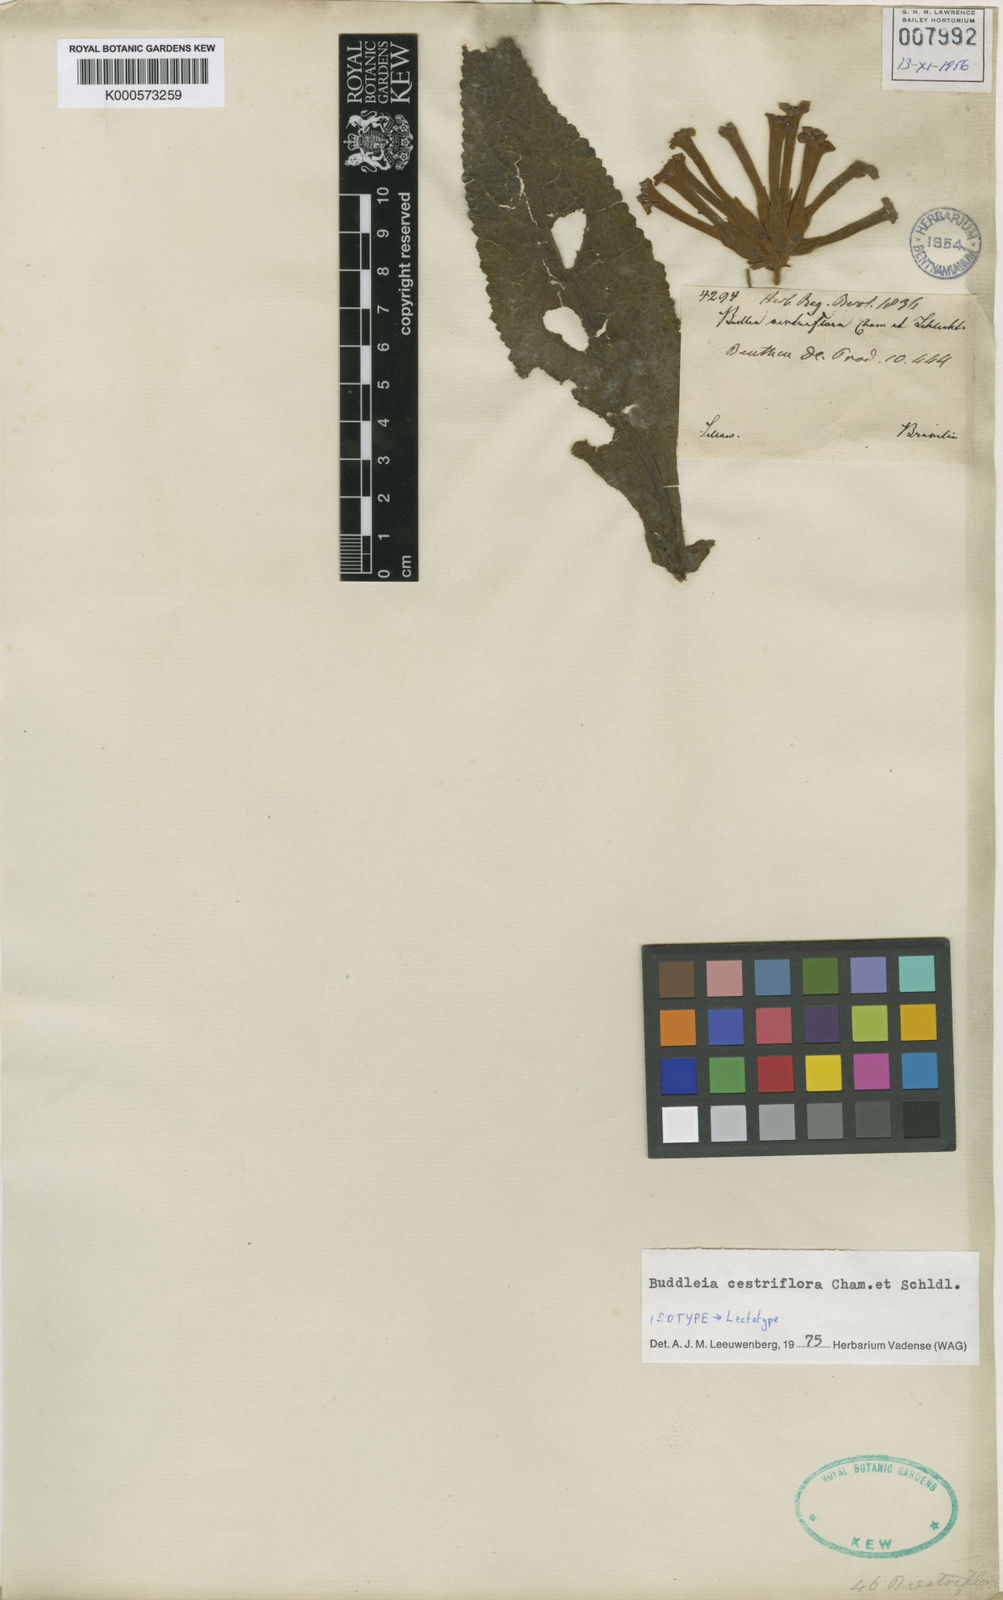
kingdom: Plantae
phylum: Tracheophyta
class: Magnoliopsida
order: Lamiales
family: Scrophulariaceae
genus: Buddleja
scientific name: Buddleja cestriflora
